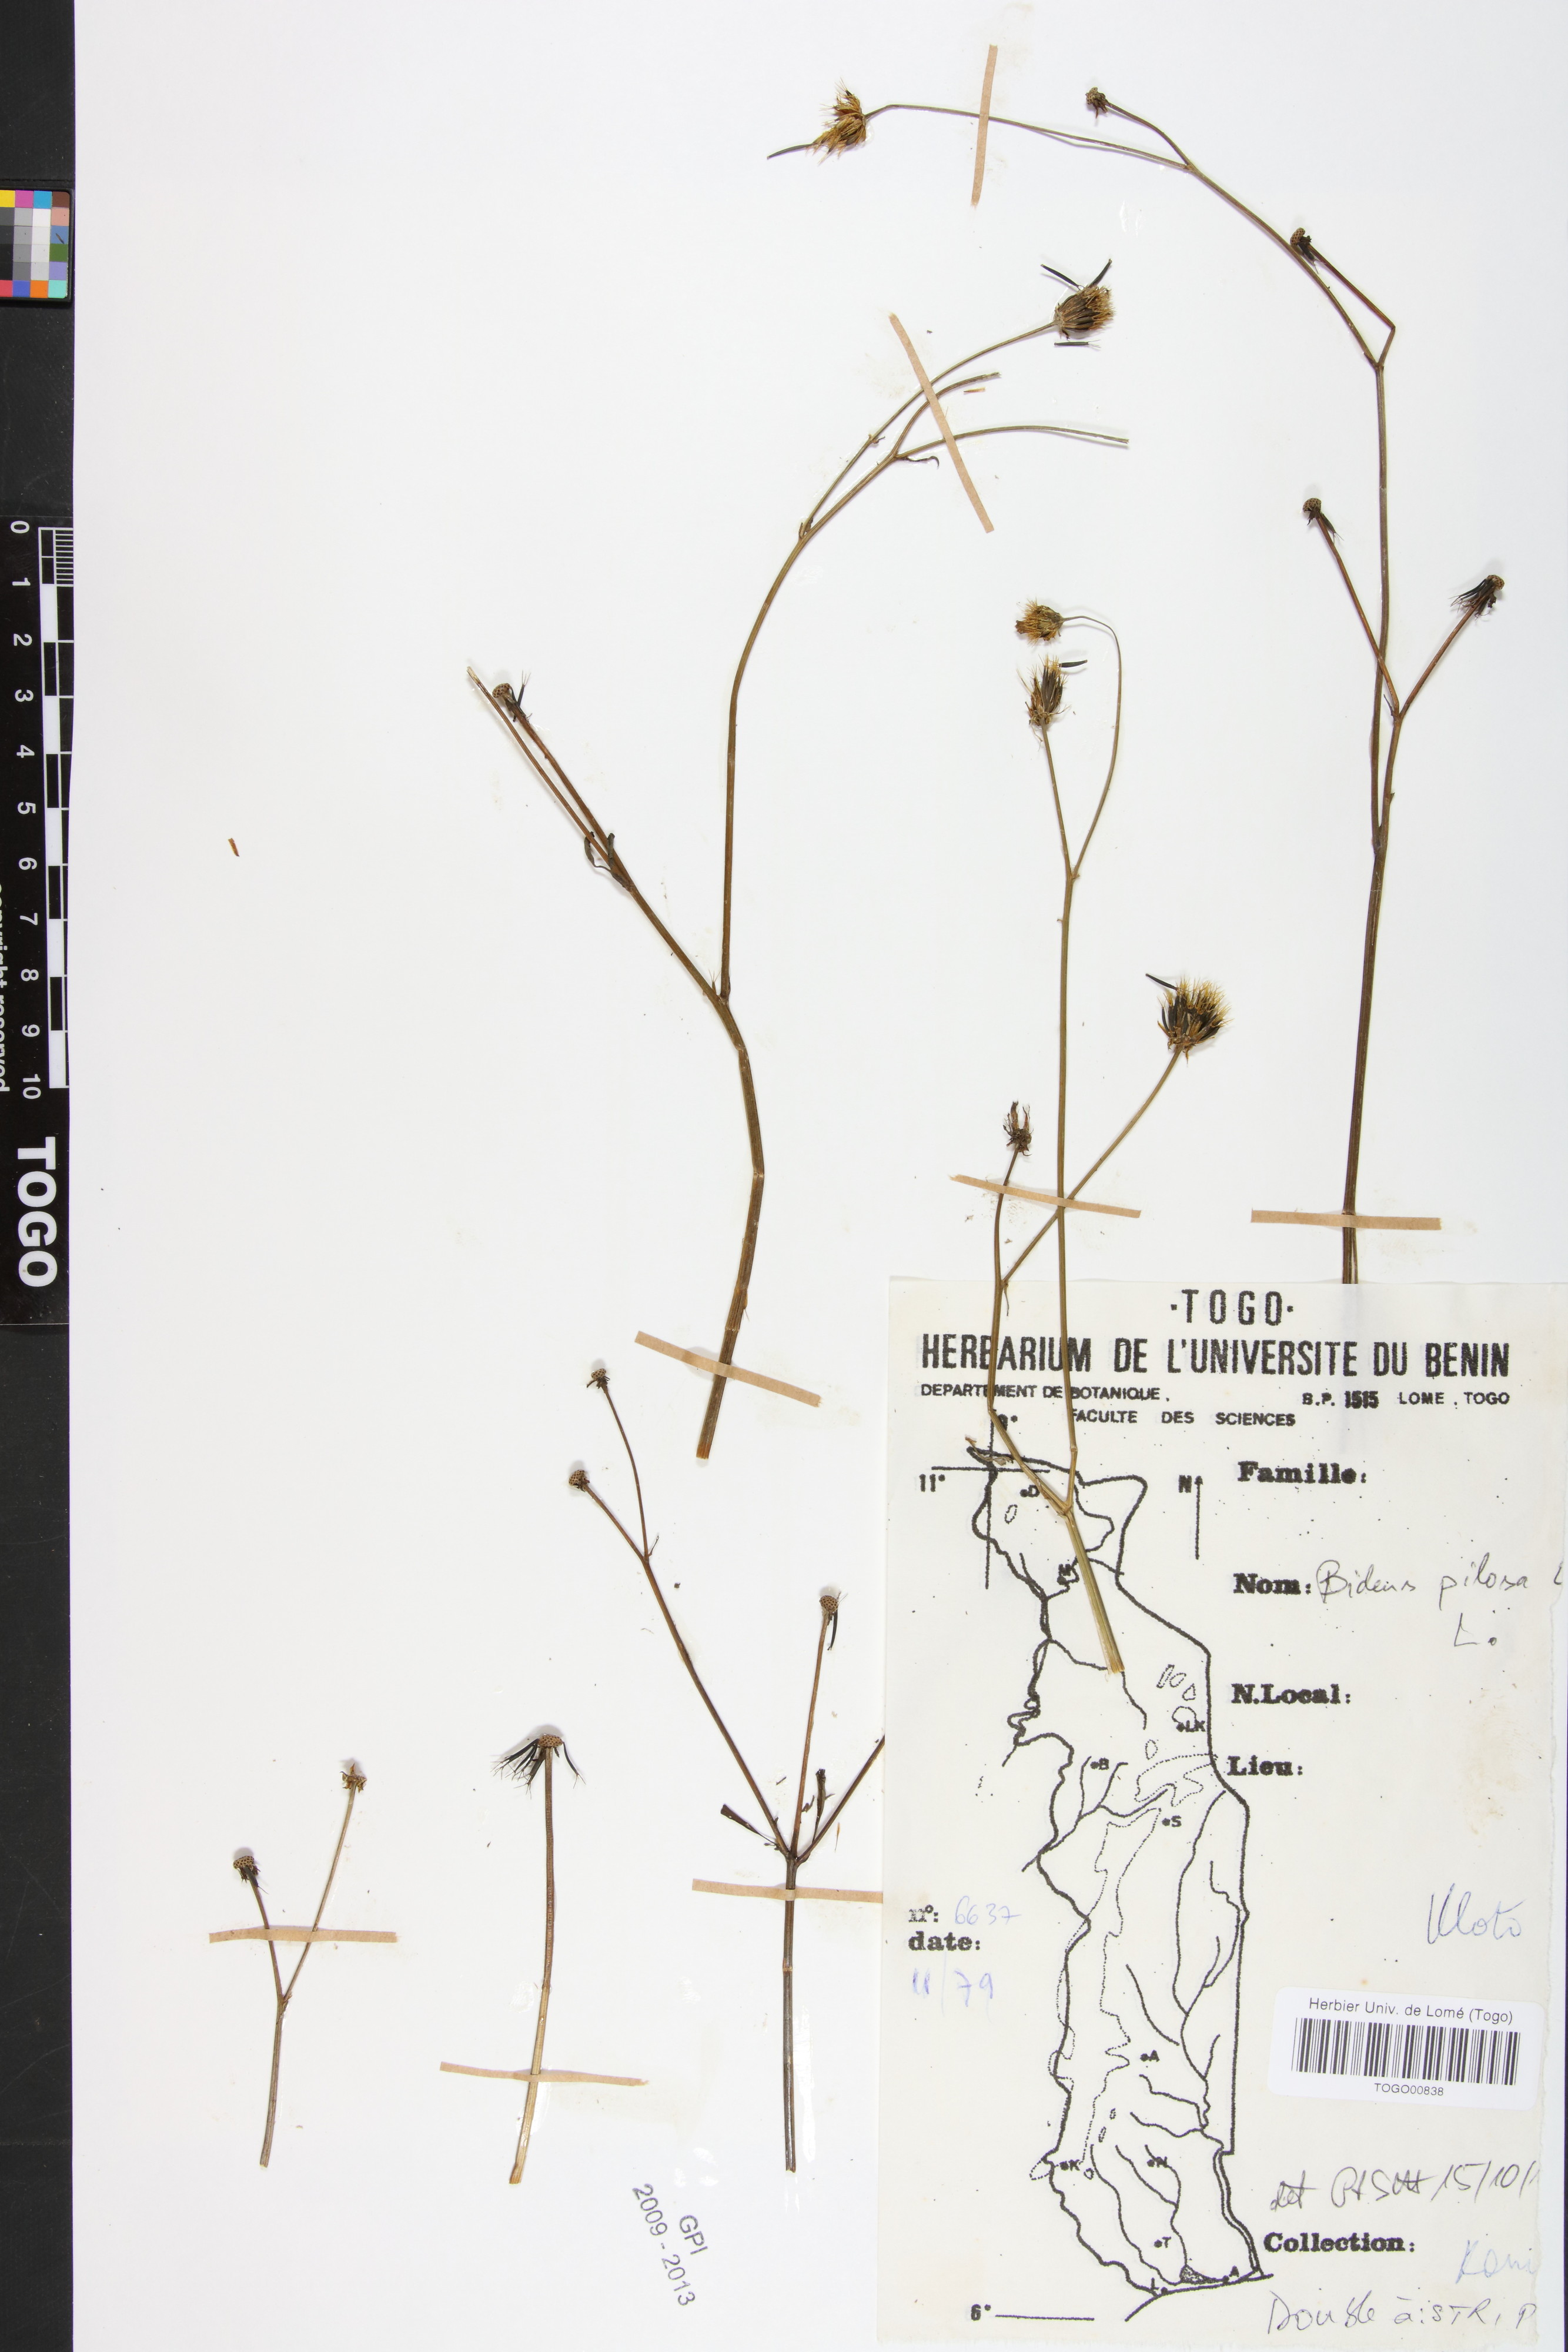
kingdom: Plantae
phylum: Tracheophyta
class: Magnoliopsida
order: Asterales
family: Asteraceae
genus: Bidens
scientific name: Bidens pilosa
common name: Black-jack
